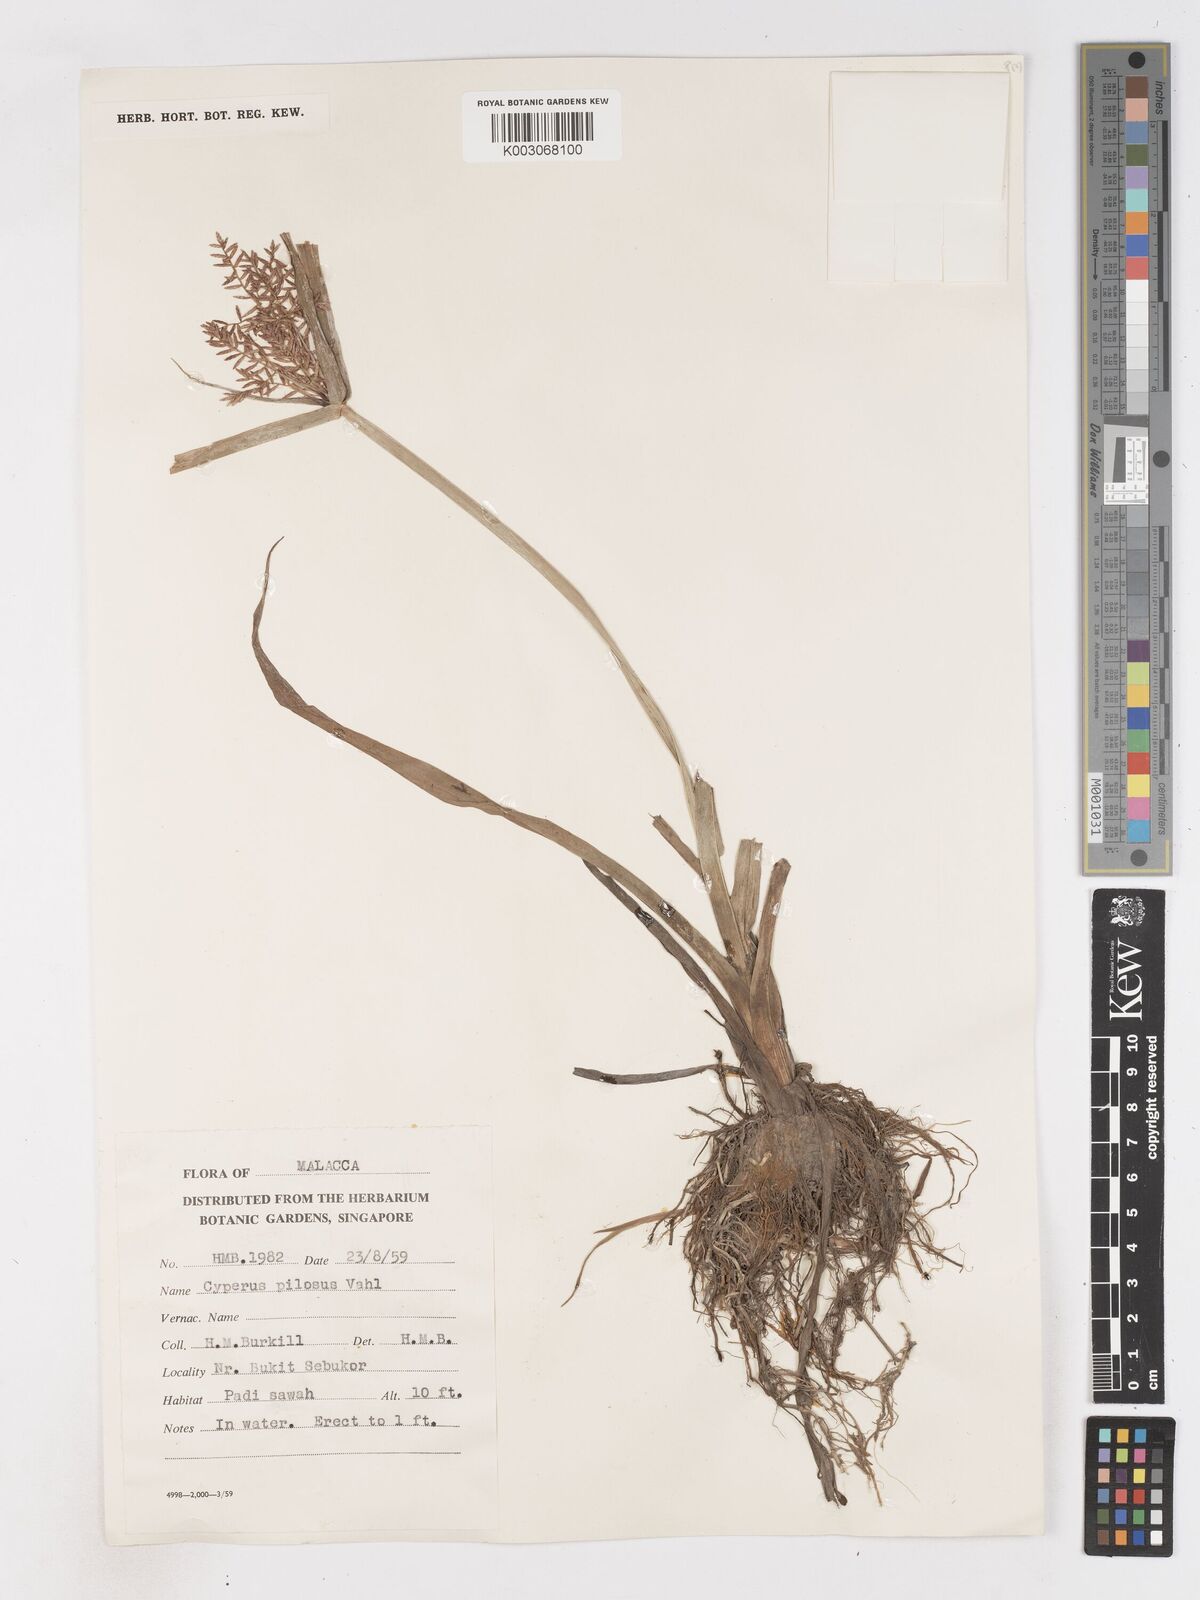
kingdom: Plantae
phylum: Tracheophyta
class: Liliopsida
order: Poales
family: Cyperaceae
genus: Cyperus
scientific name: Cyperus pilosus
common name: Fuzzy flatsedge
